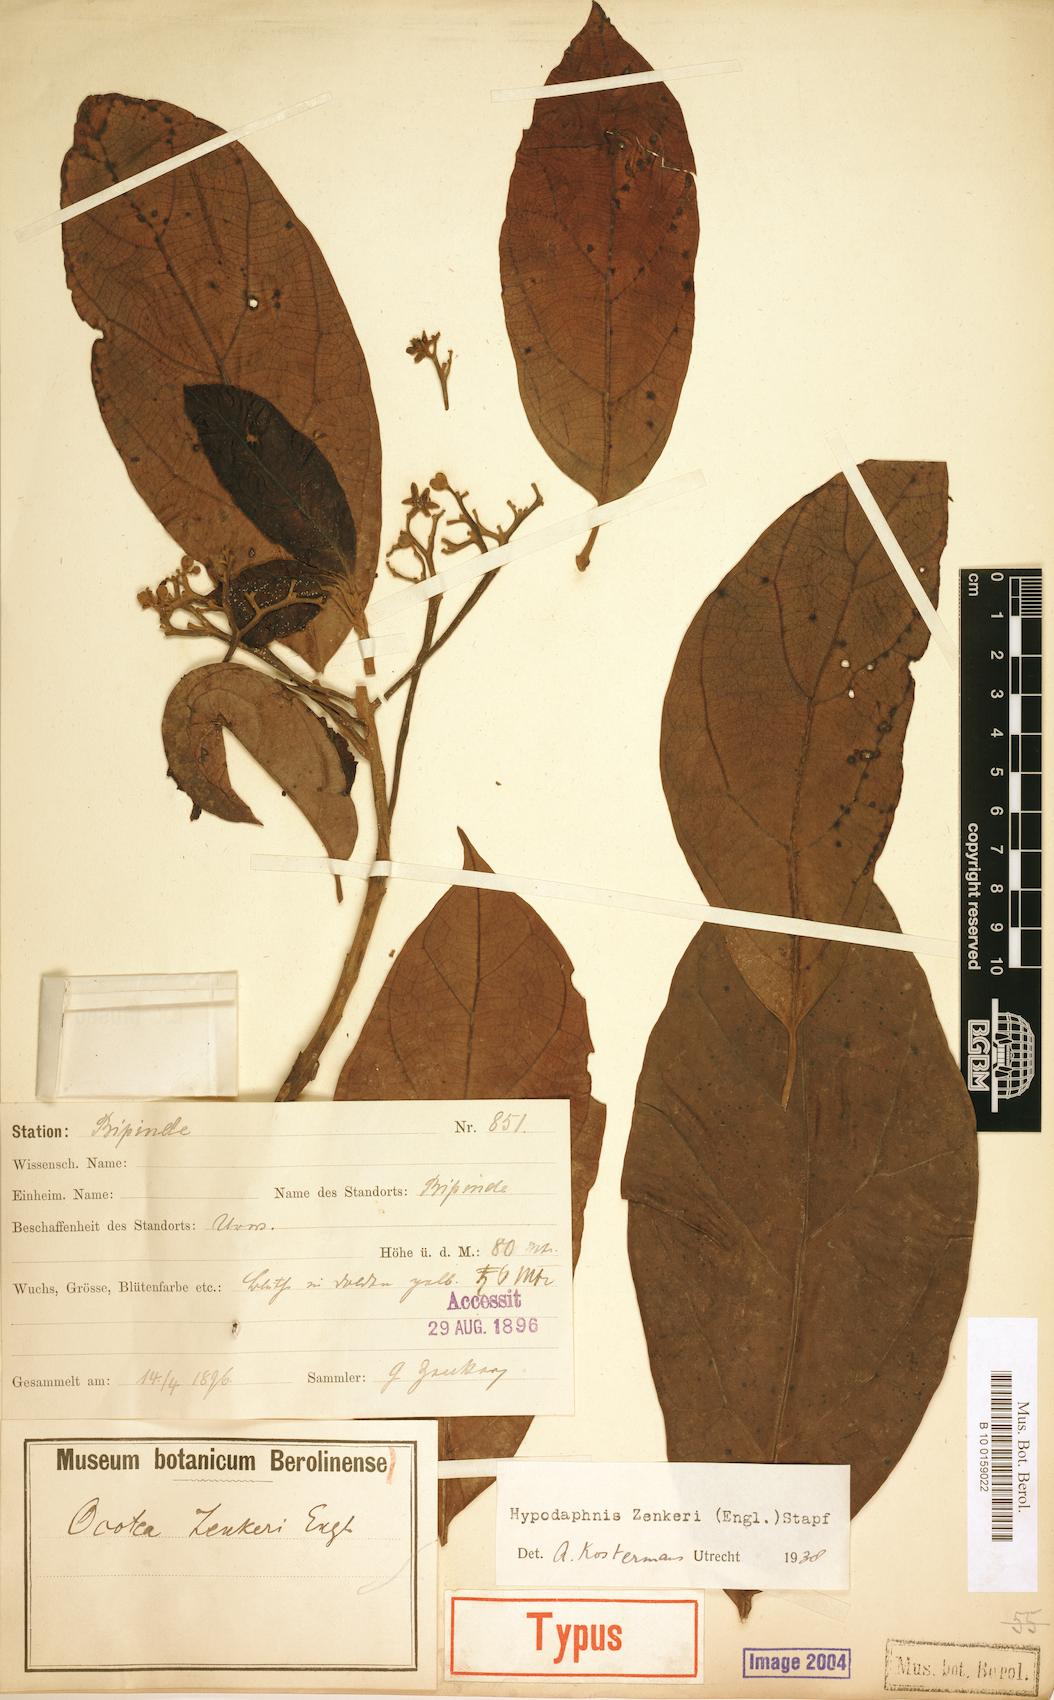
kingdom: Plantae
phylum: Tracheophyta
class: Magnoliopsida
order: Laurales
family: Lauraceae
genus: Hypodaphnis
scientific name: Hypodaphnis zenkeri
